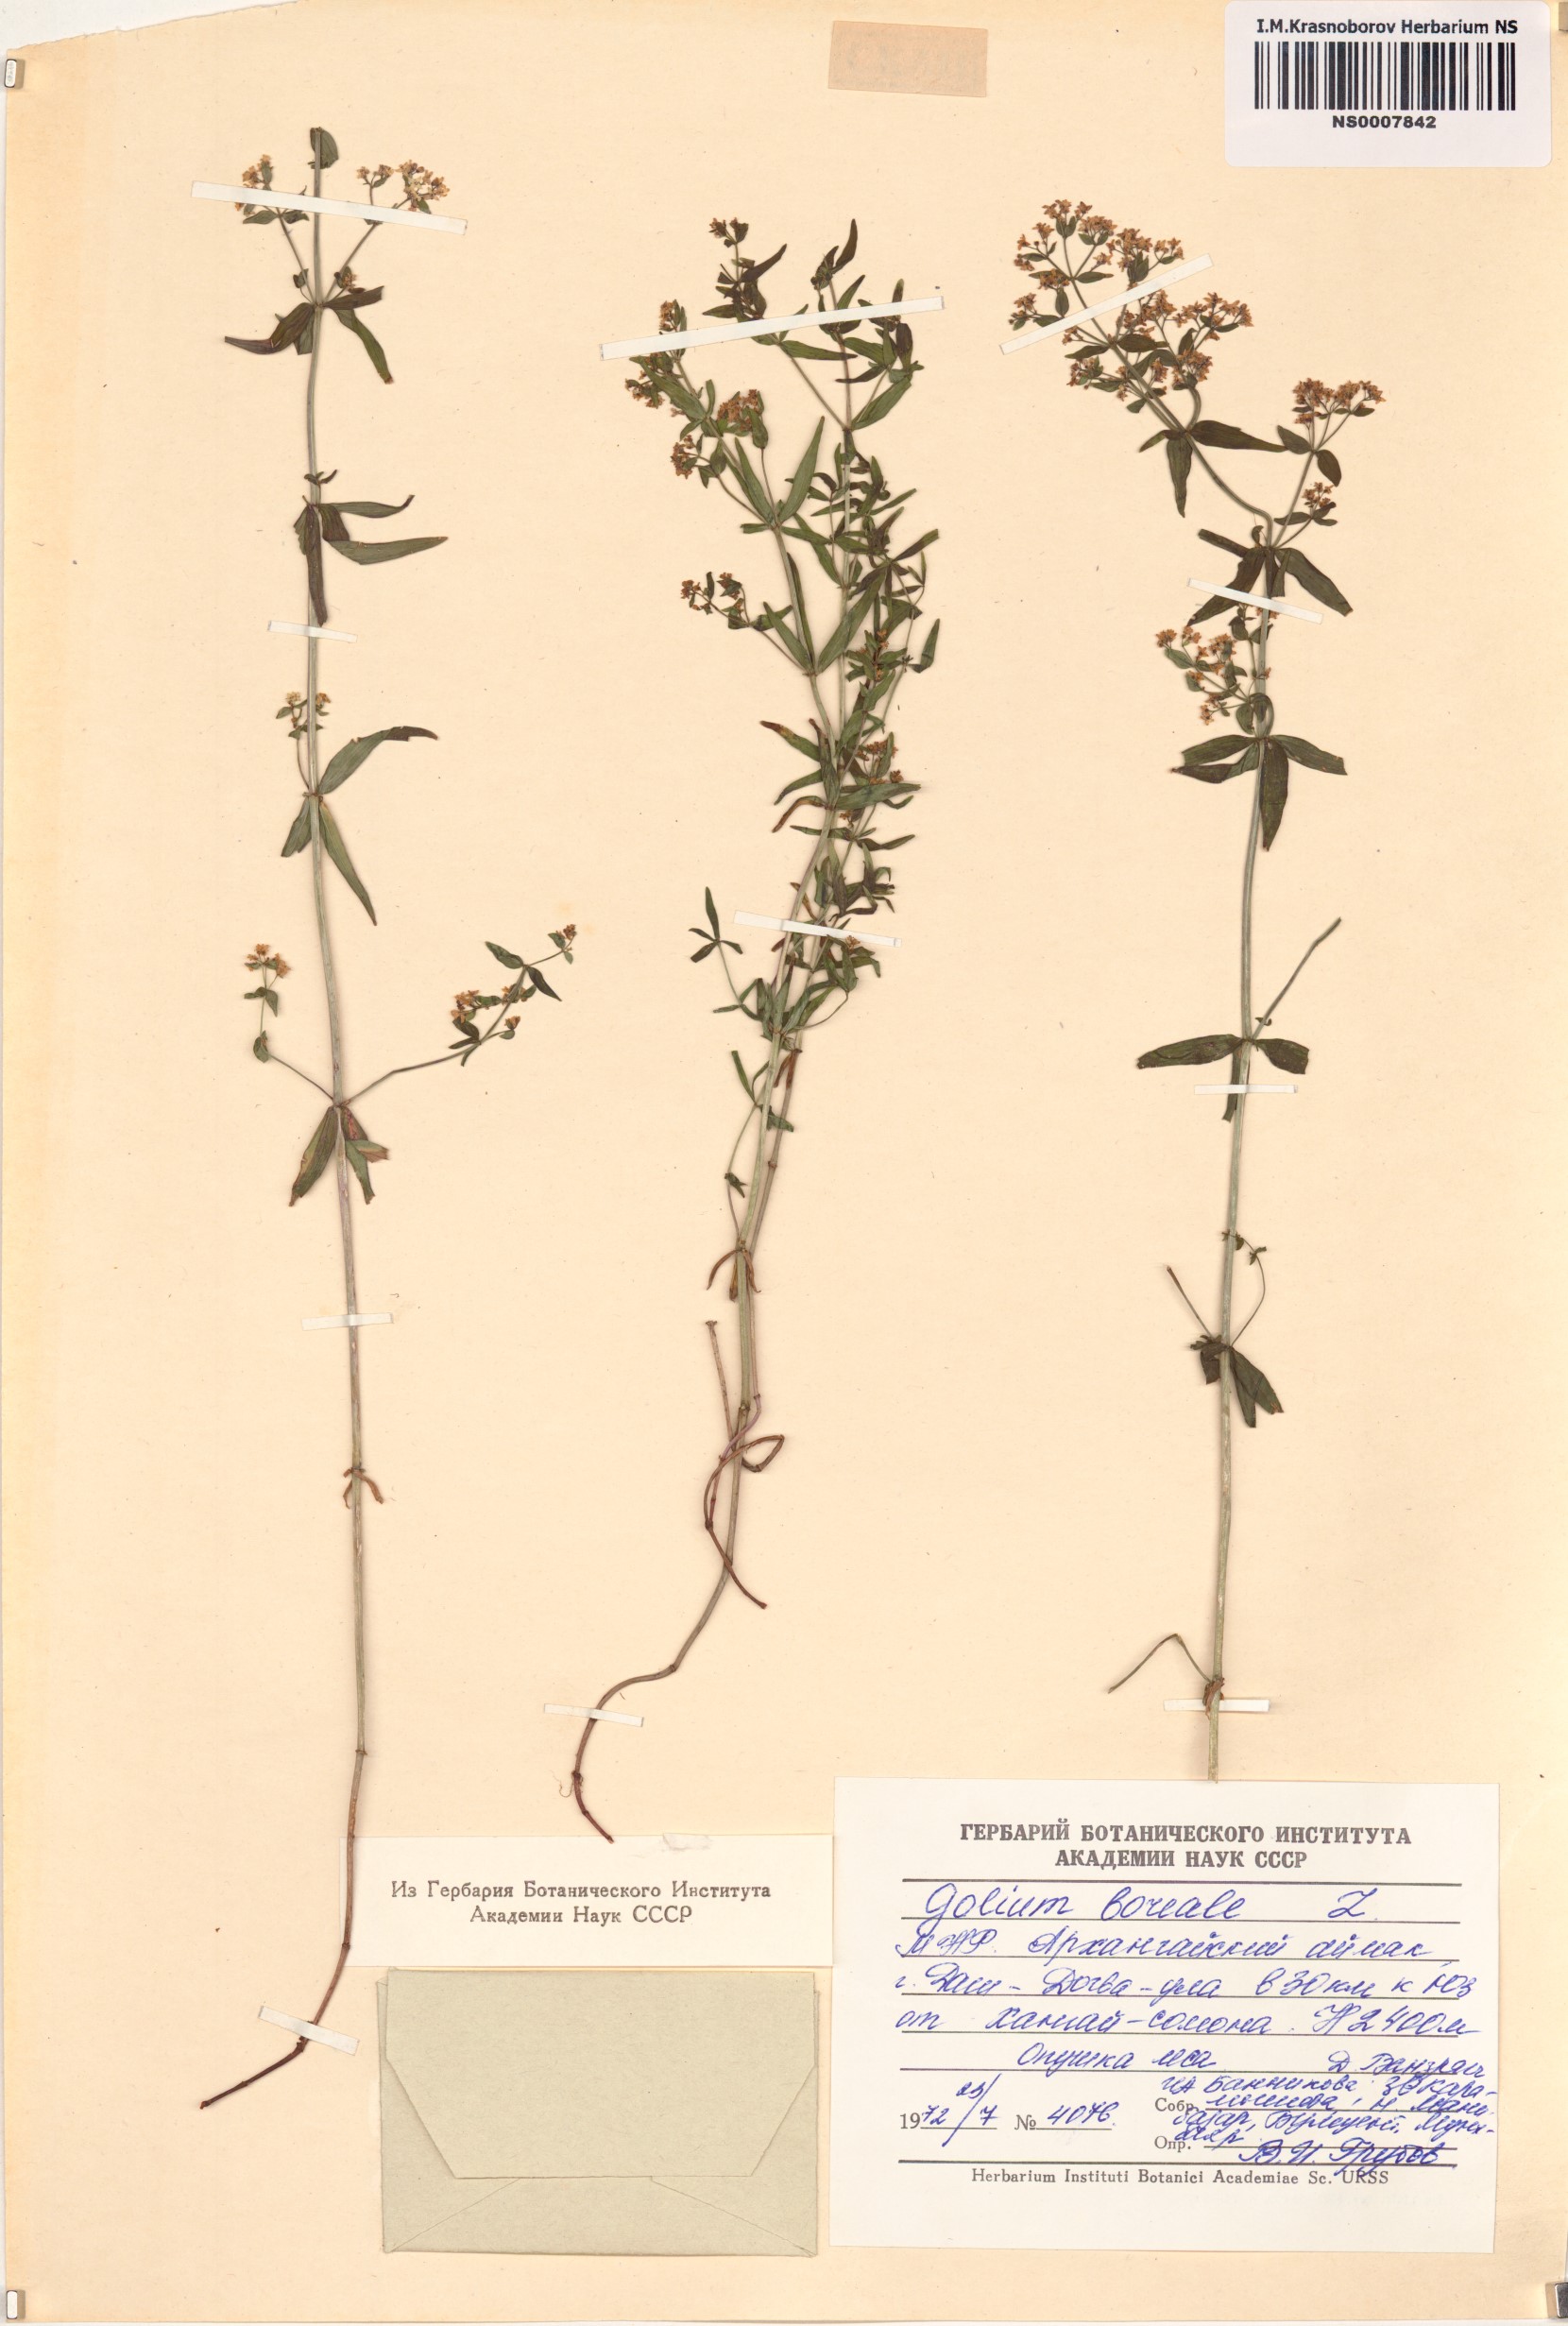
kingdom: Plantae
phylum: Tracheophyta
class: Magnoliopsida
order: Gentianales
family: Rubiaceae
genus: Galium
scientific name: Galium boreale
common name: Northern bedstraw
